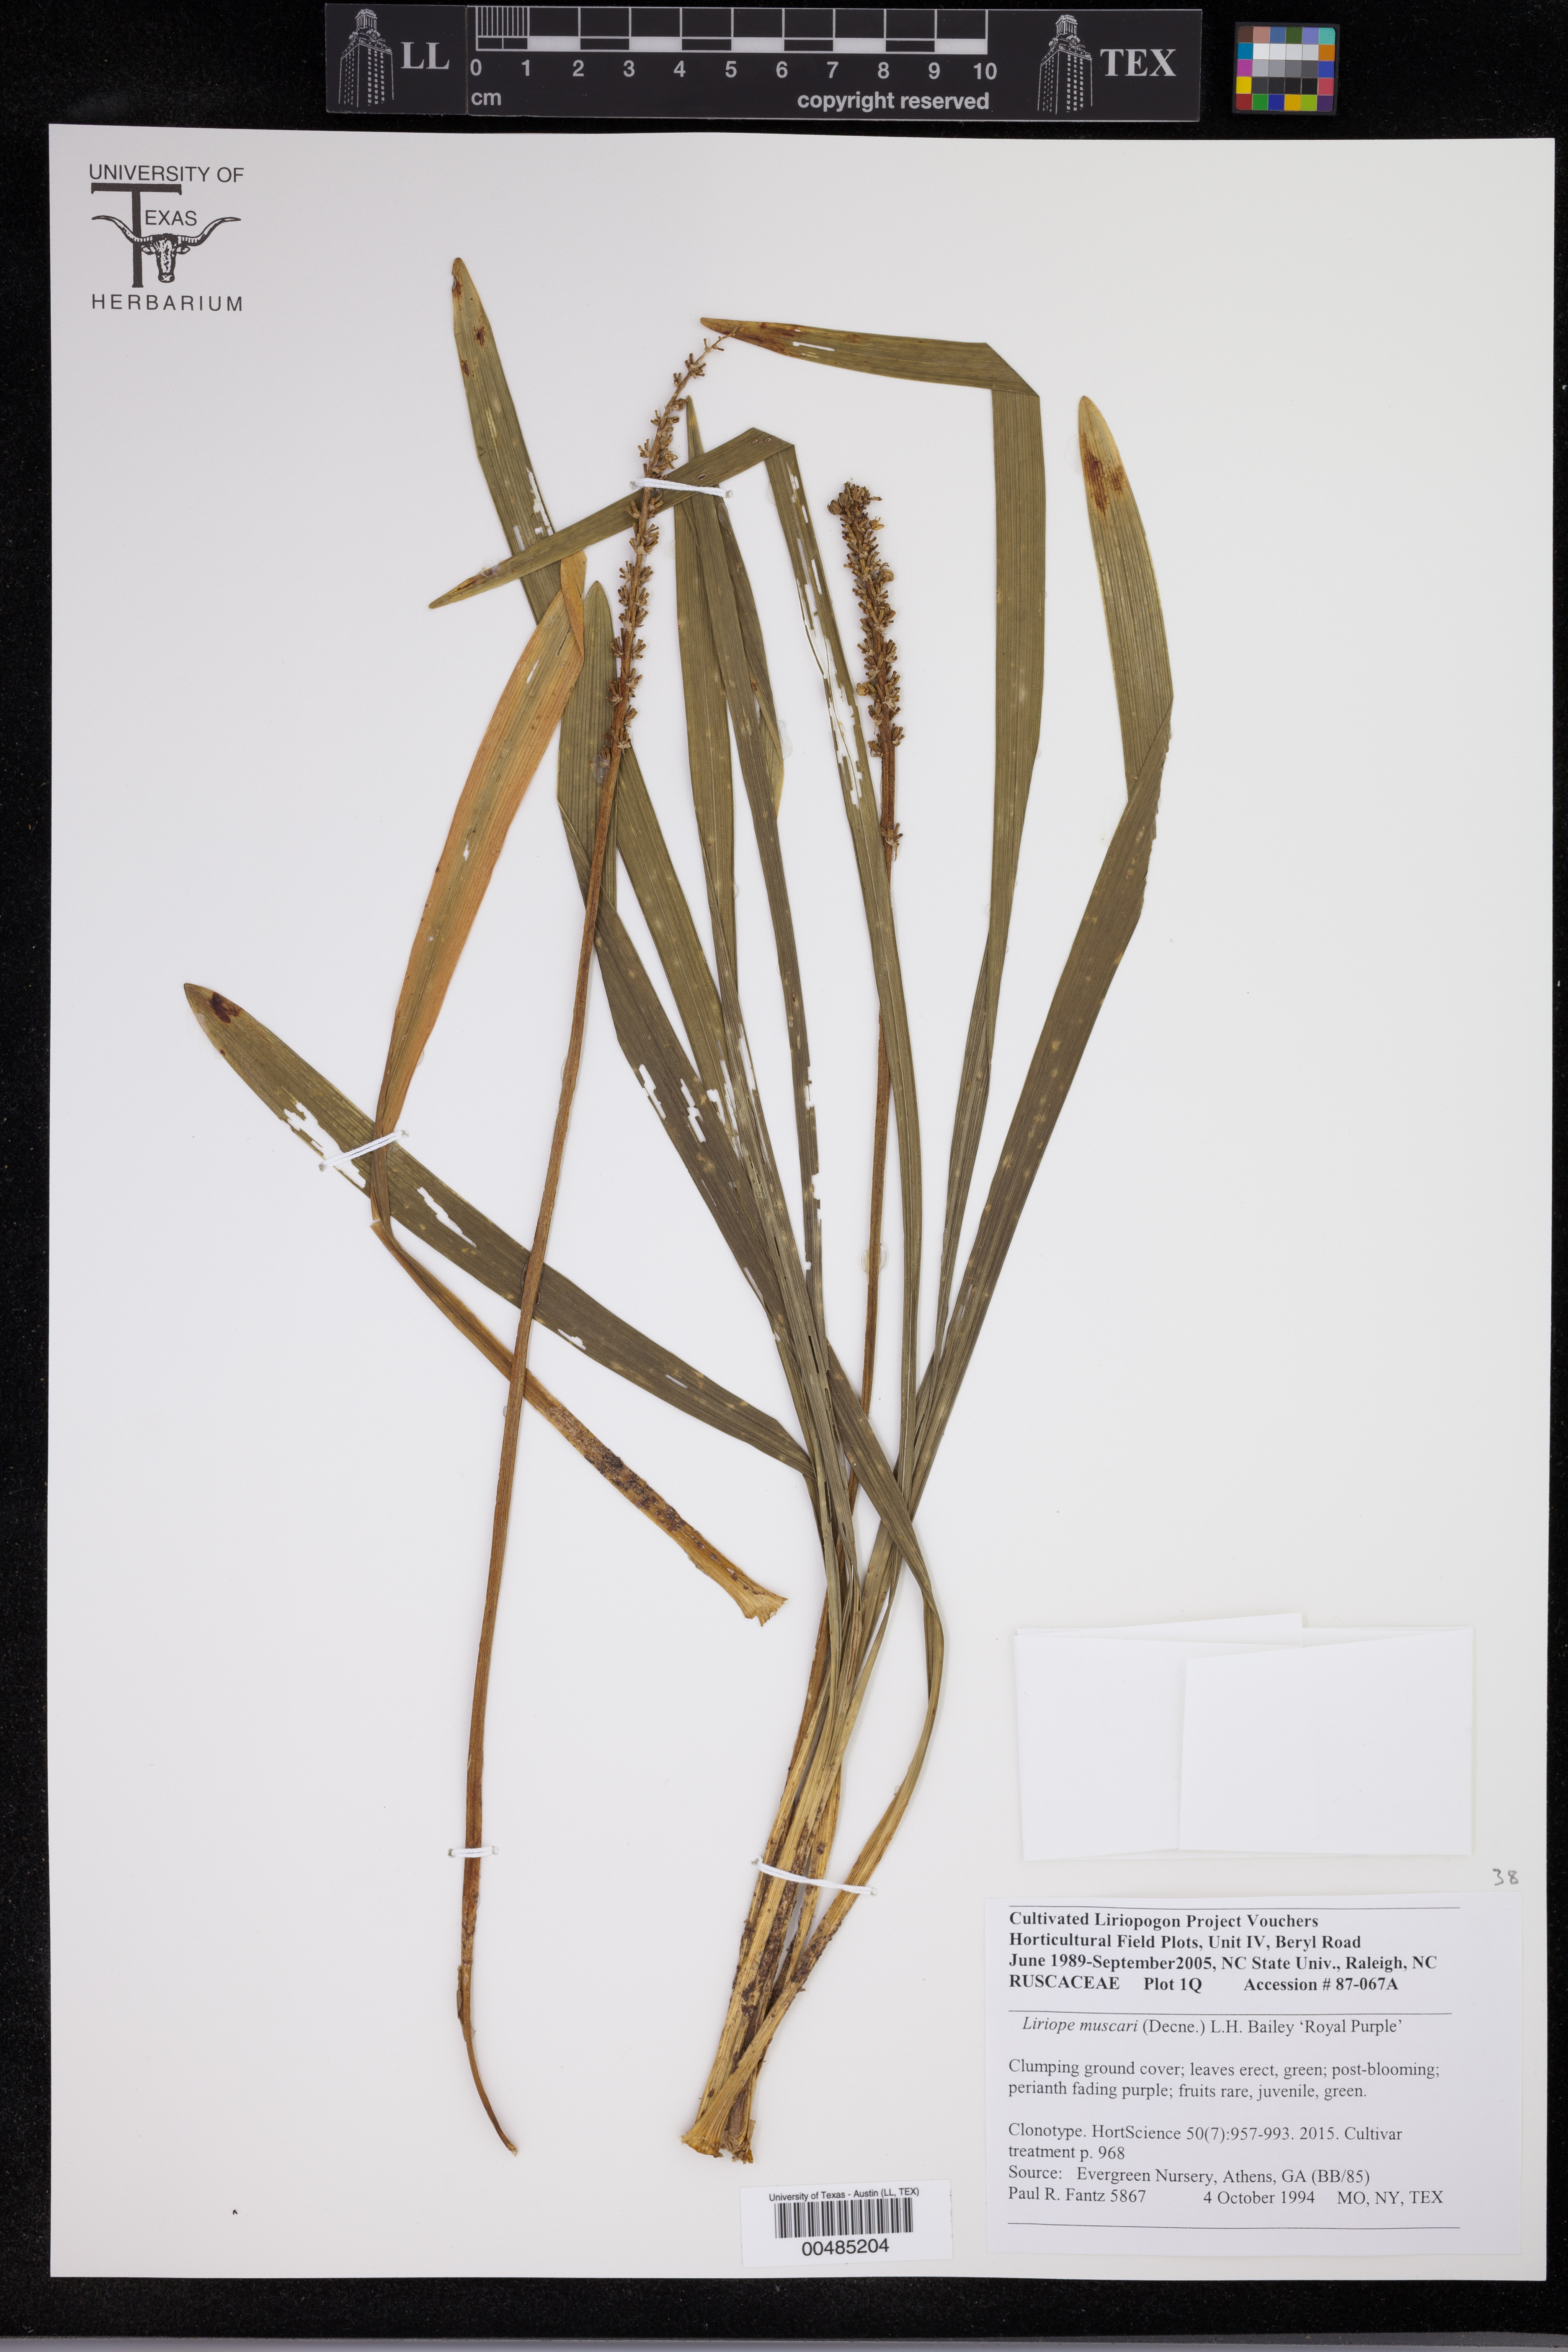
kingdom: Plantae
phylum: Tracheophyta
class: Liliopsida
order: Asparagales
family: Asparagaceae
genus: Liriope
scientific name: Liriope muscari
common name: Big blue lilyturf
